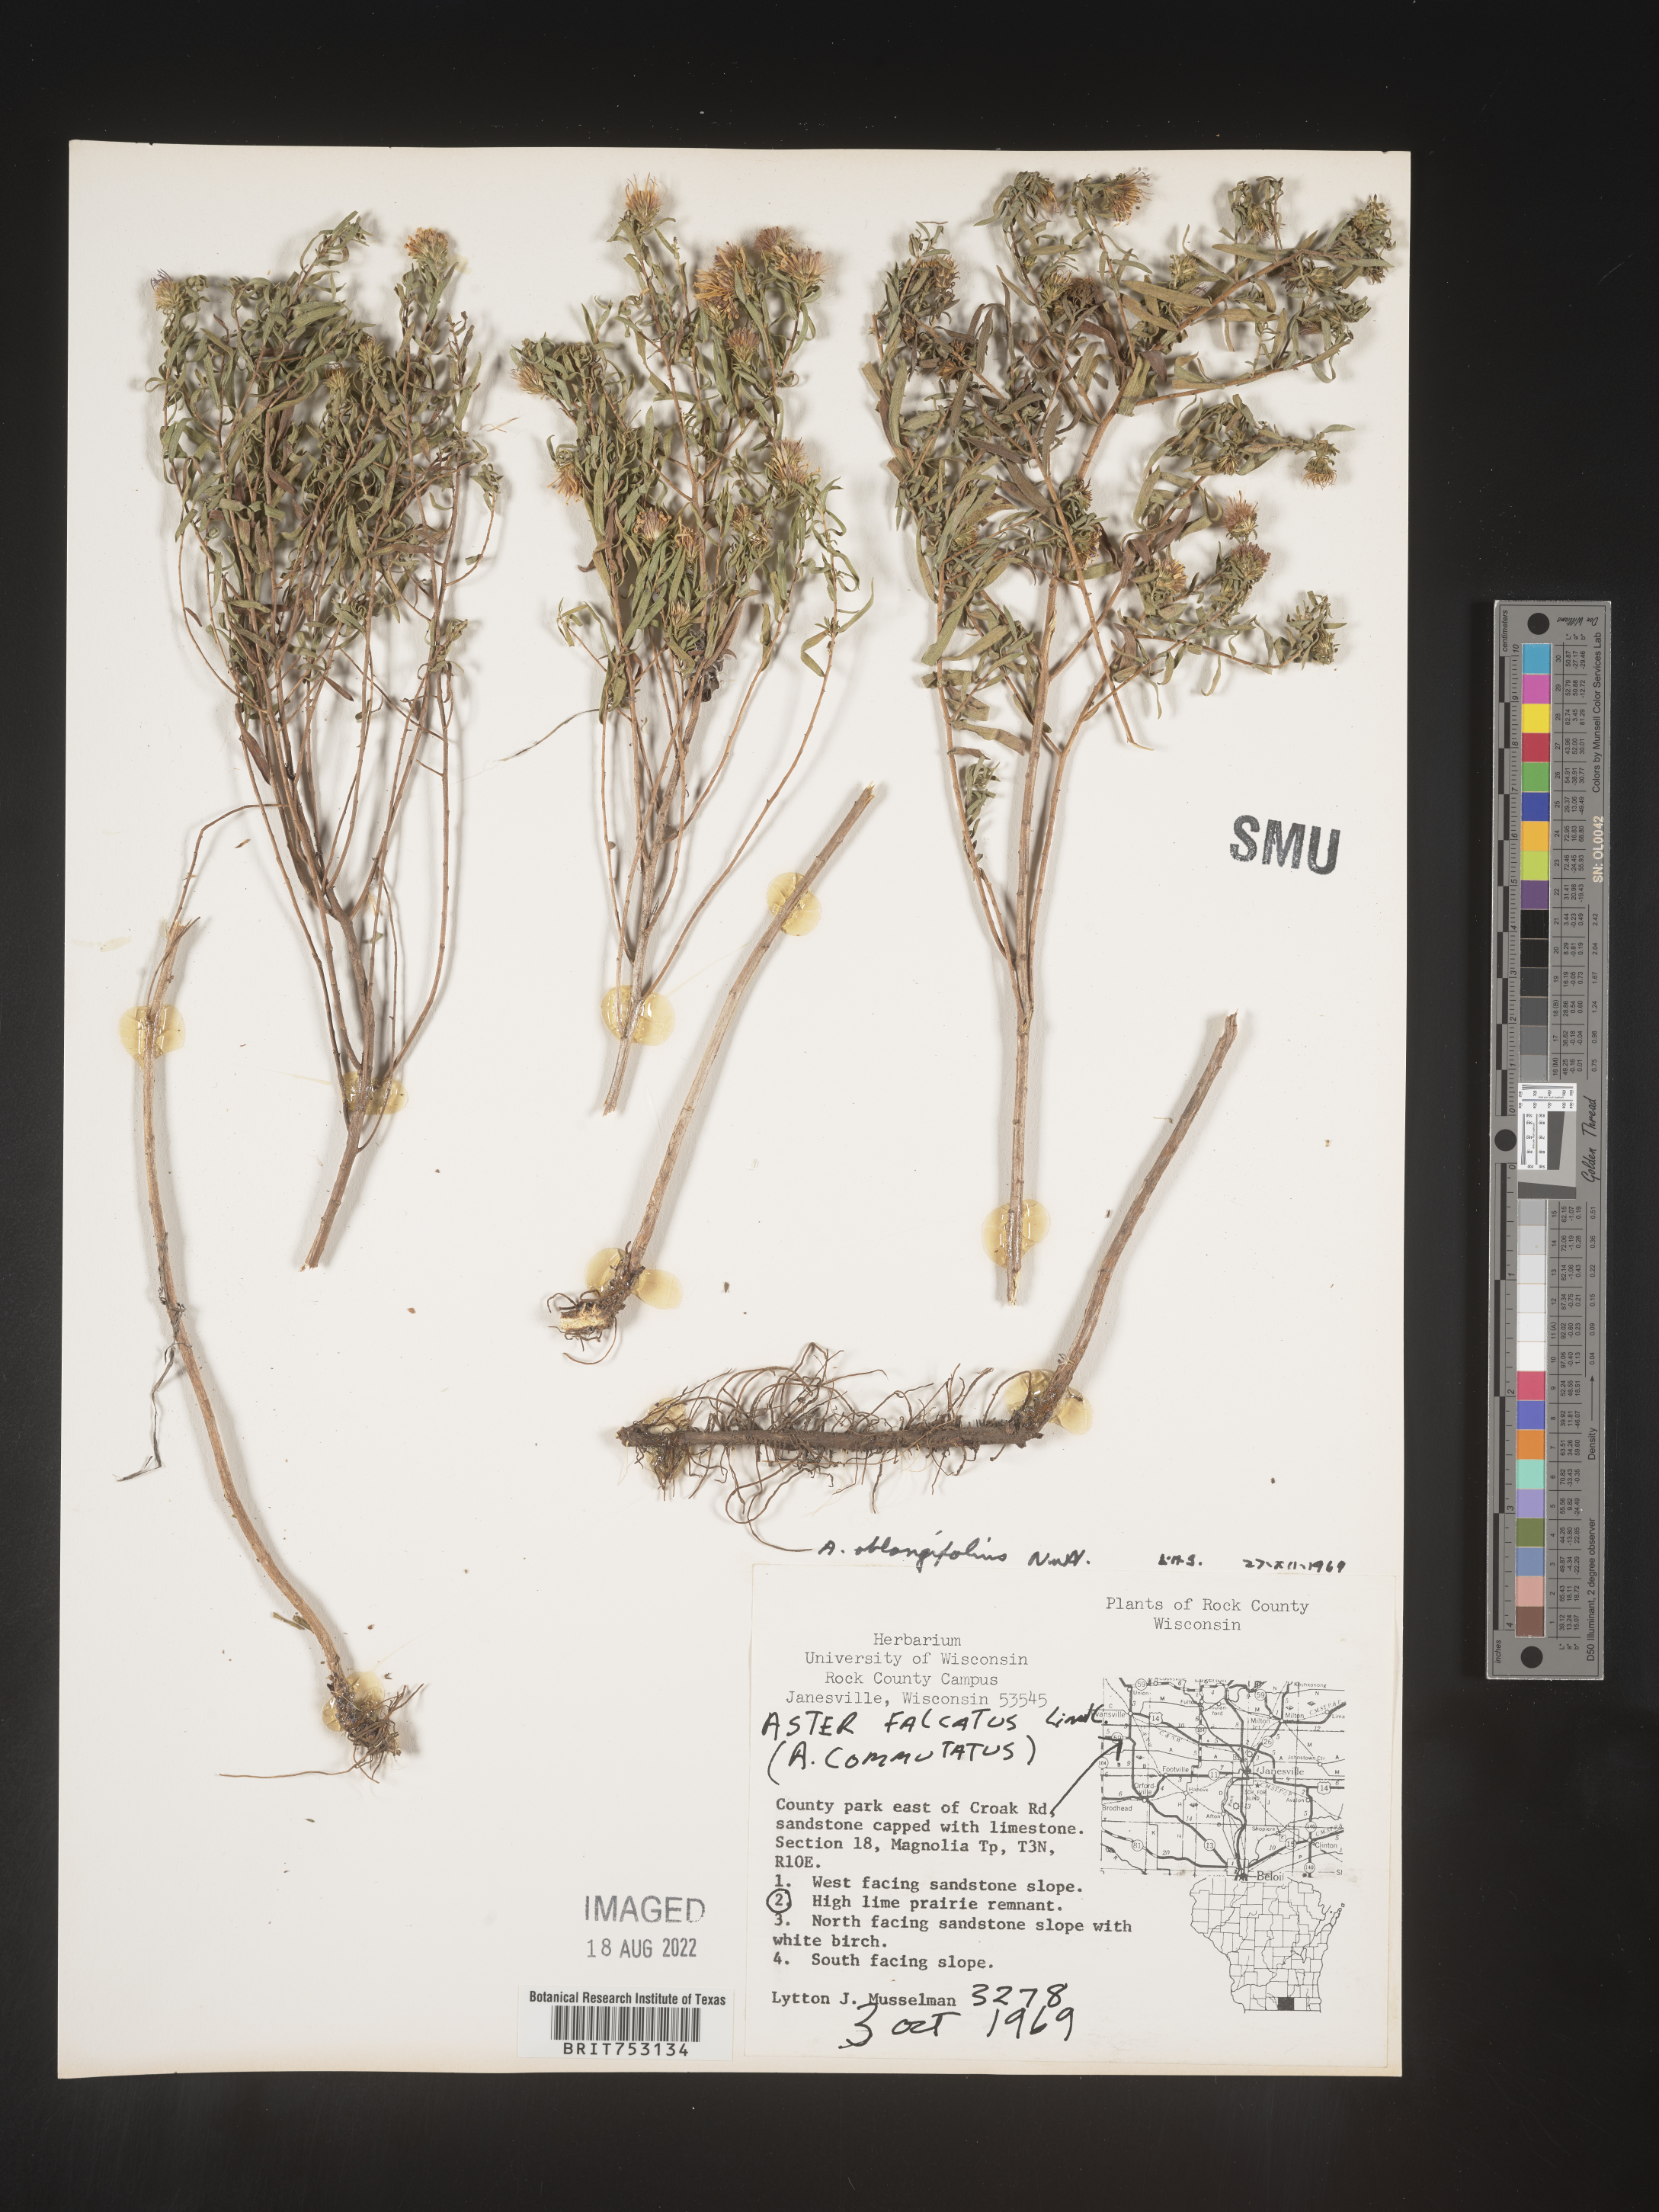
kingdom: Plantae
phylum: Tracheophyta
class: Magnoliopsida
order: Asterales
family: Asteraceae
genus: Symphyotrichum
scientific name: Symphyotrichum oblongifolium
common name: Aromatic aster
